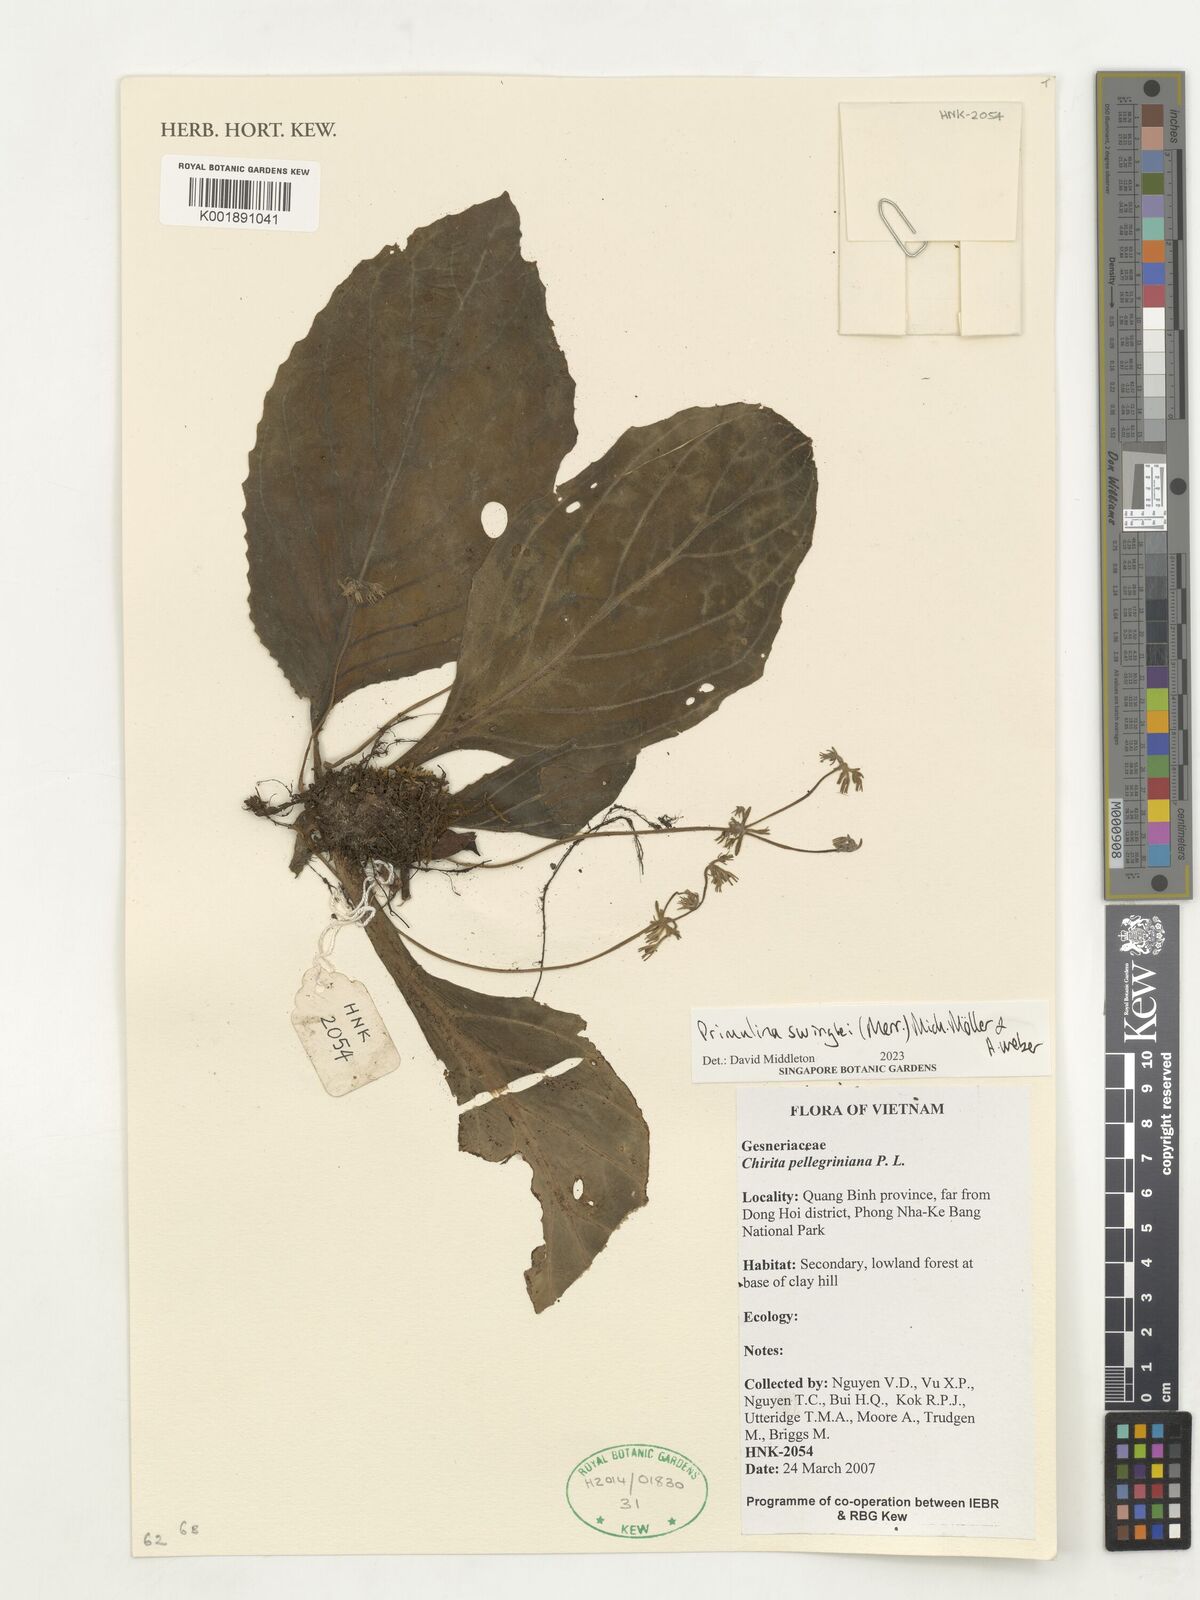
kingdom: Plantae
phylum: Tracheophyta
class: Magnoliopsida
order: Lamiales
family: Gesneriaceae
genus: Primulina
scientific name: Primulina swinglei
